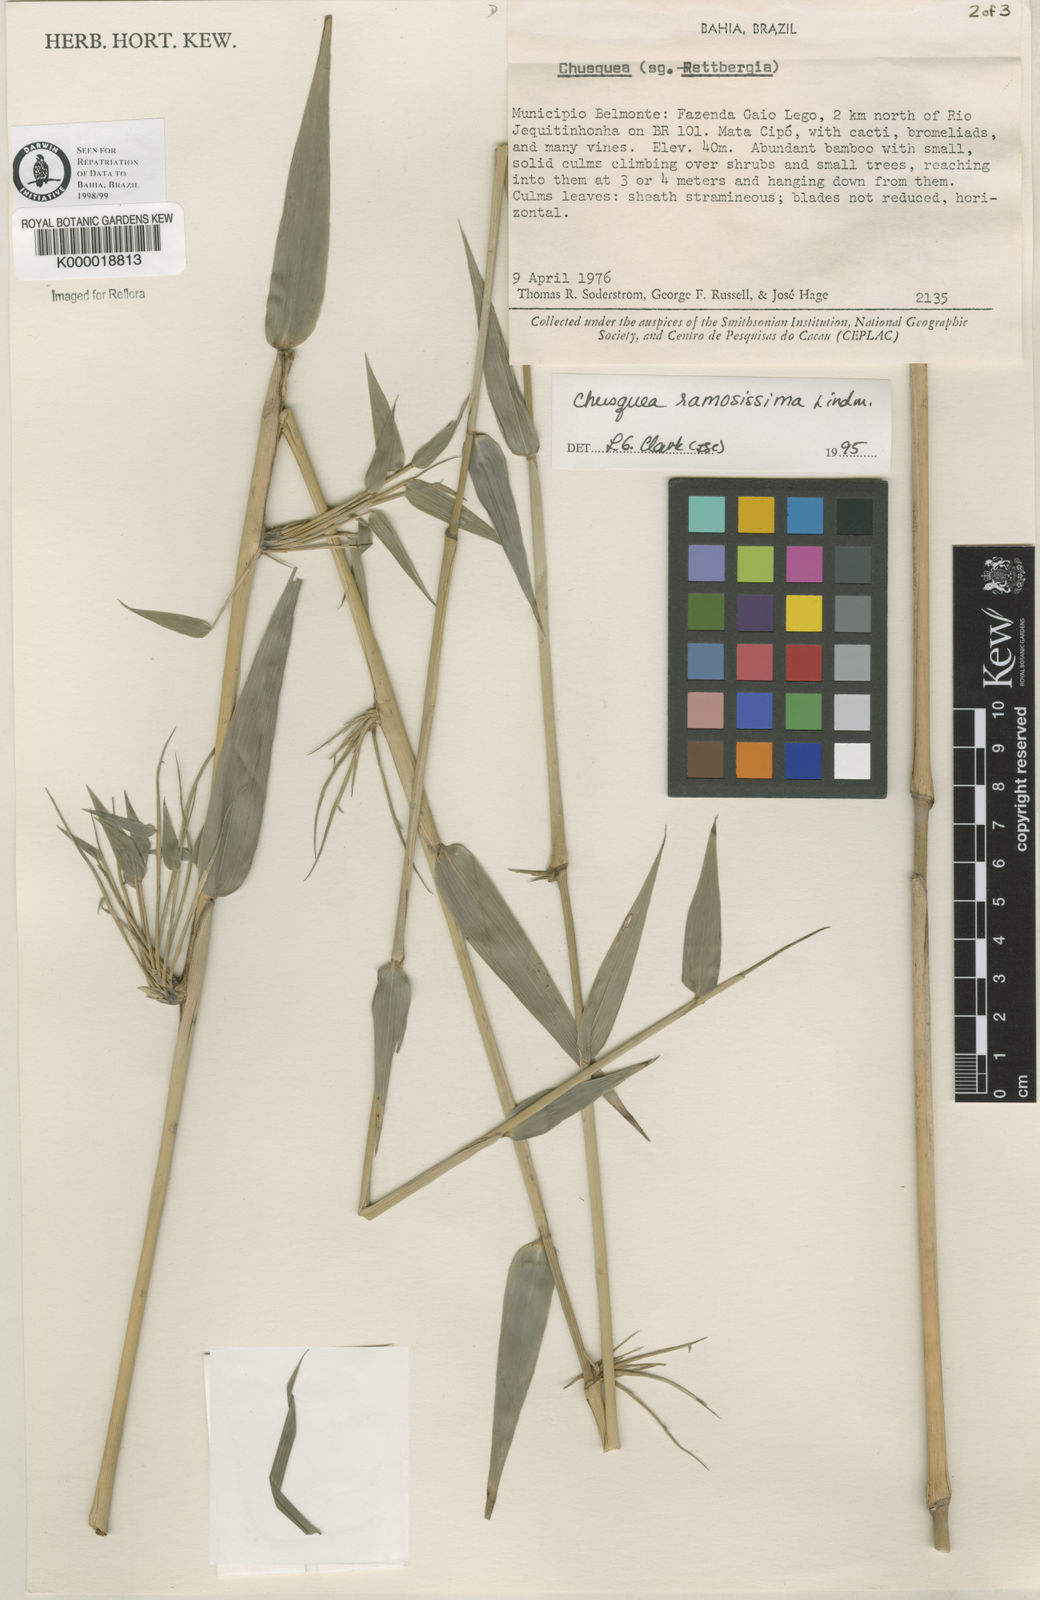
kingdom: Plantae
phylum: Tracheophyta
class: Liliopsida
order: Poales
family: Poaceae
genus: Chusquea
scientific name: Chusquea ramosissima
